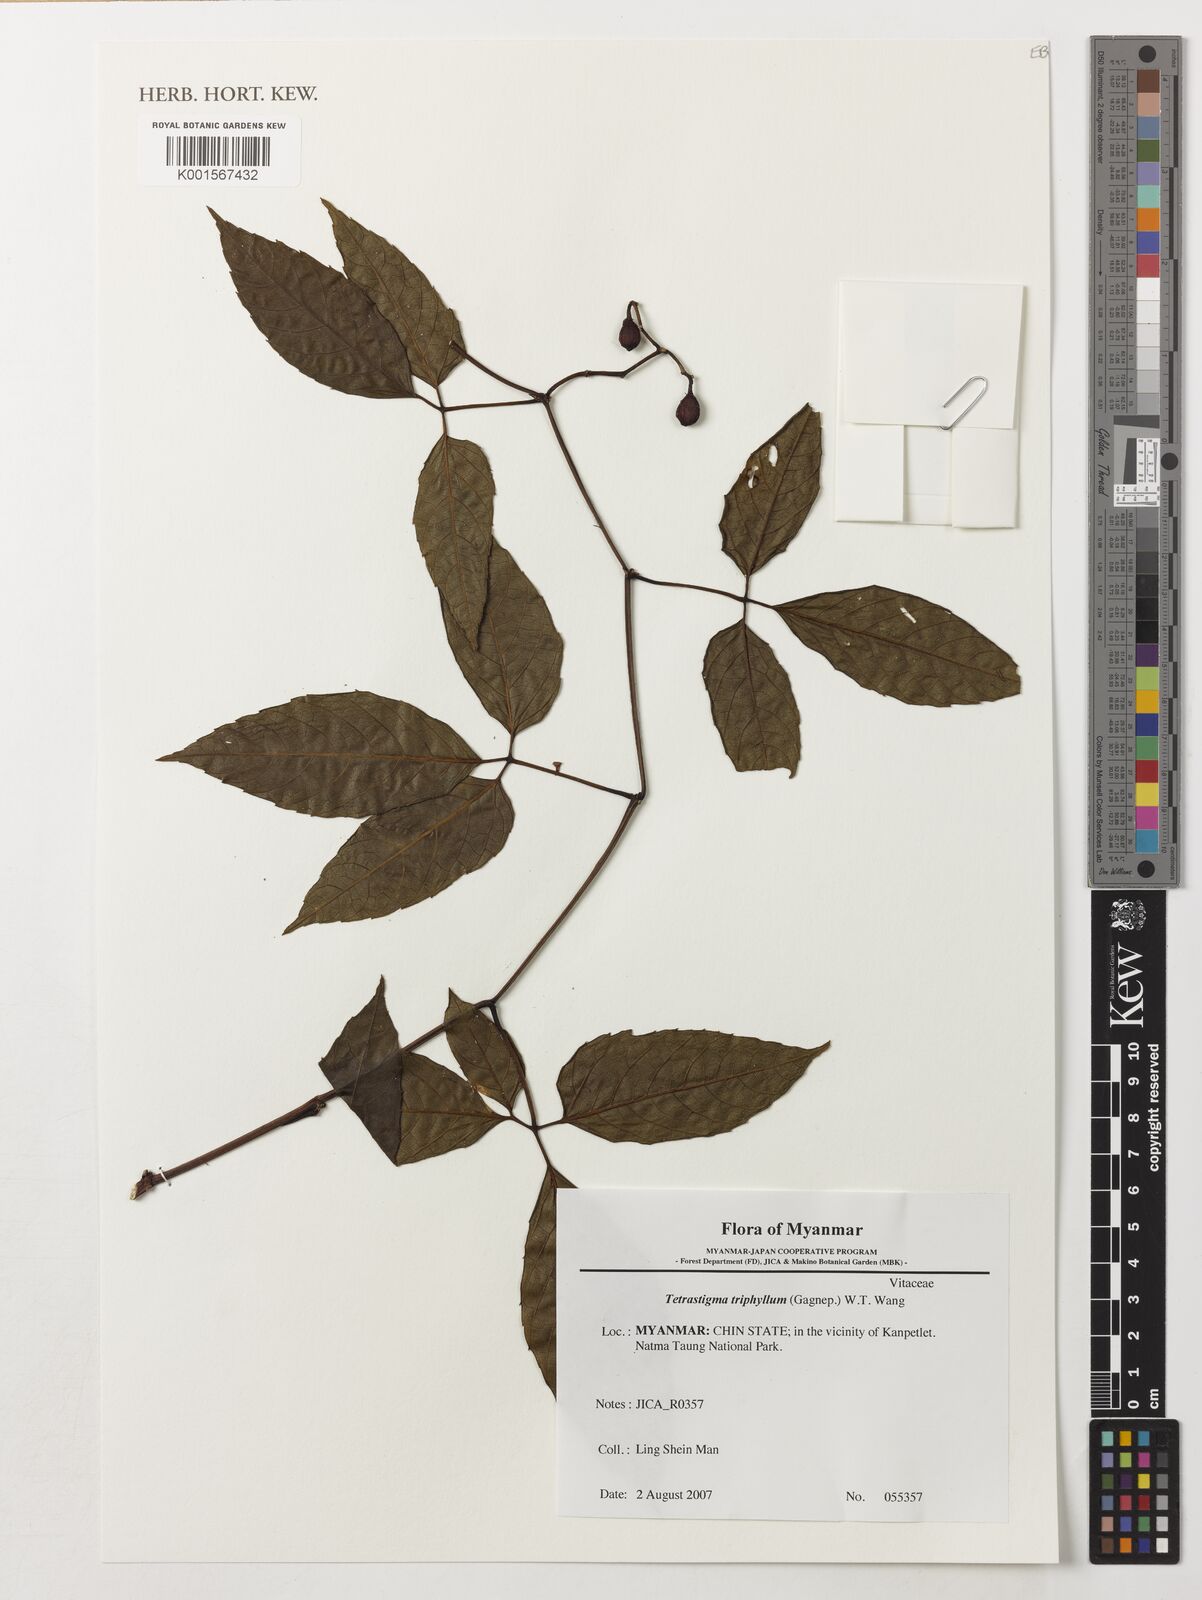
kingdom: Plantae
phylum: Tracheophyta
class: Magnoliopsida
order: Vitales
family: Vitaceae
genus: Tetrastigma
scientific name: Tetrastigma triphyllum
